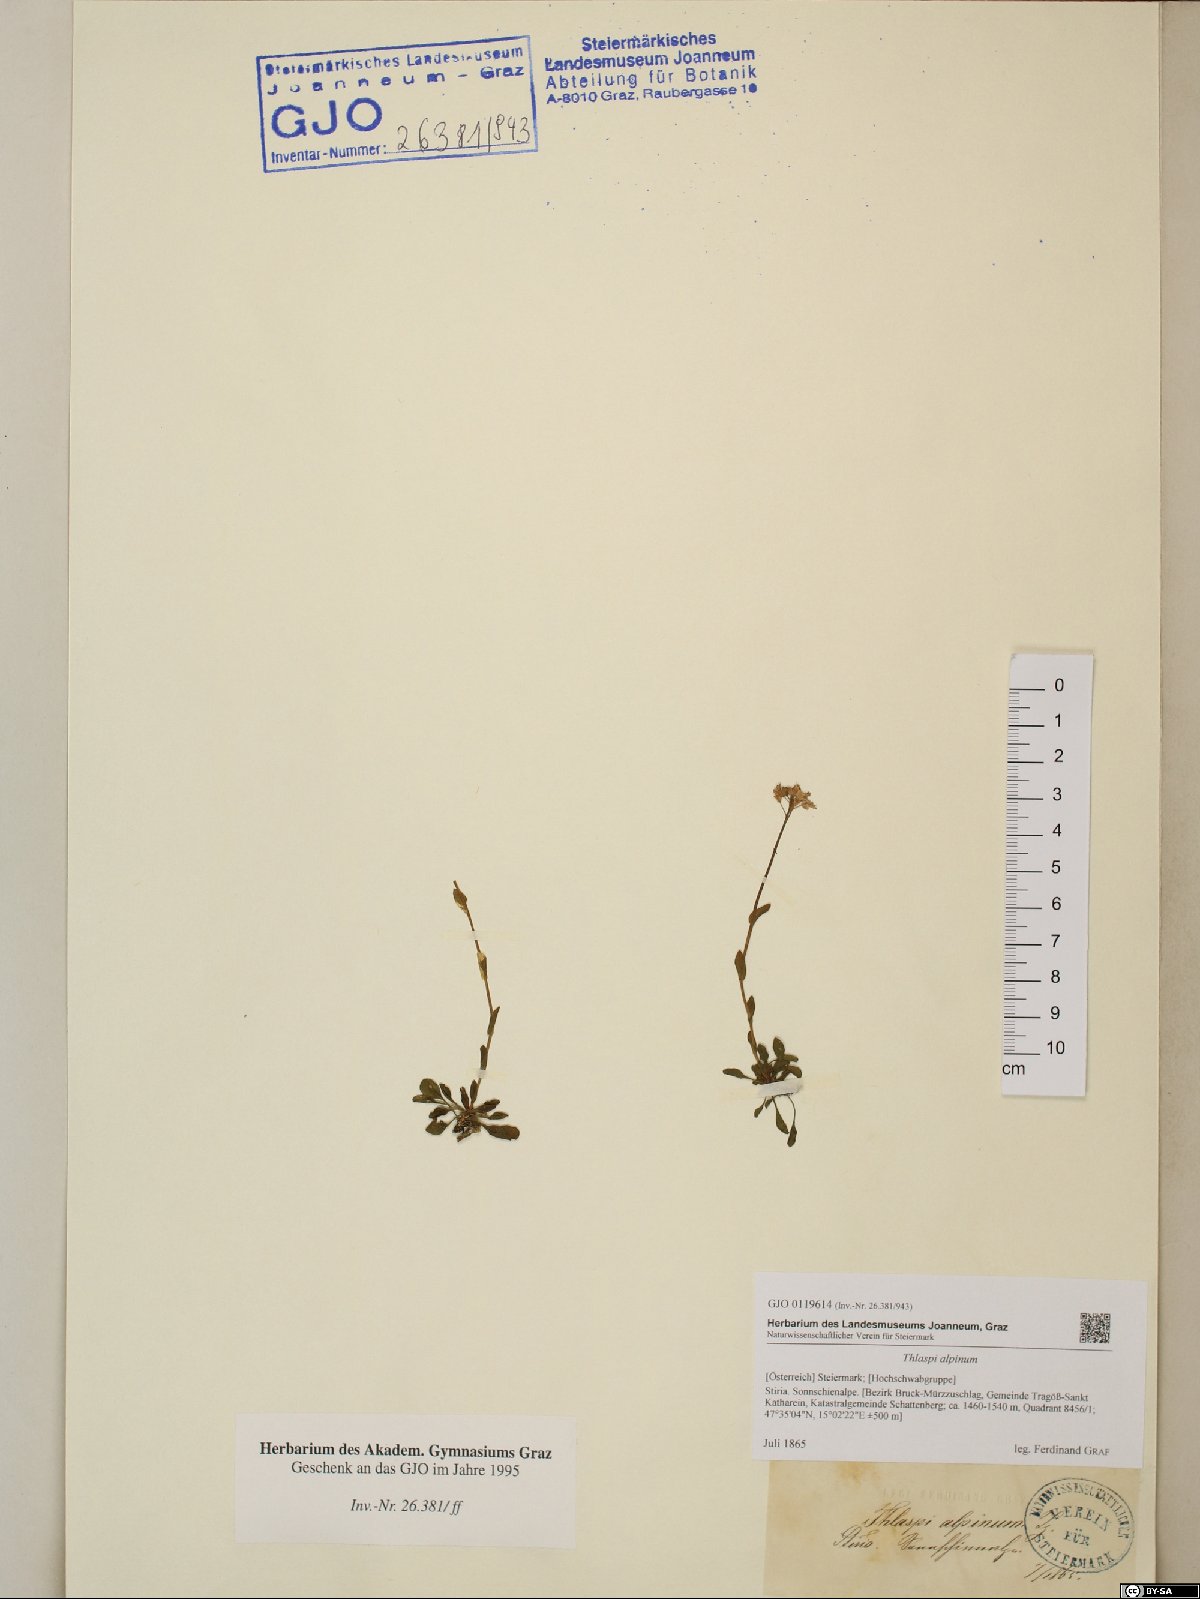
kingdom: Plantae
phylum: Tracheophyta
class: Magnoliopsida
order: Brassicales
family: Brassicaceae
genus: Noccaea
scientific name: Noccaea alpestris
